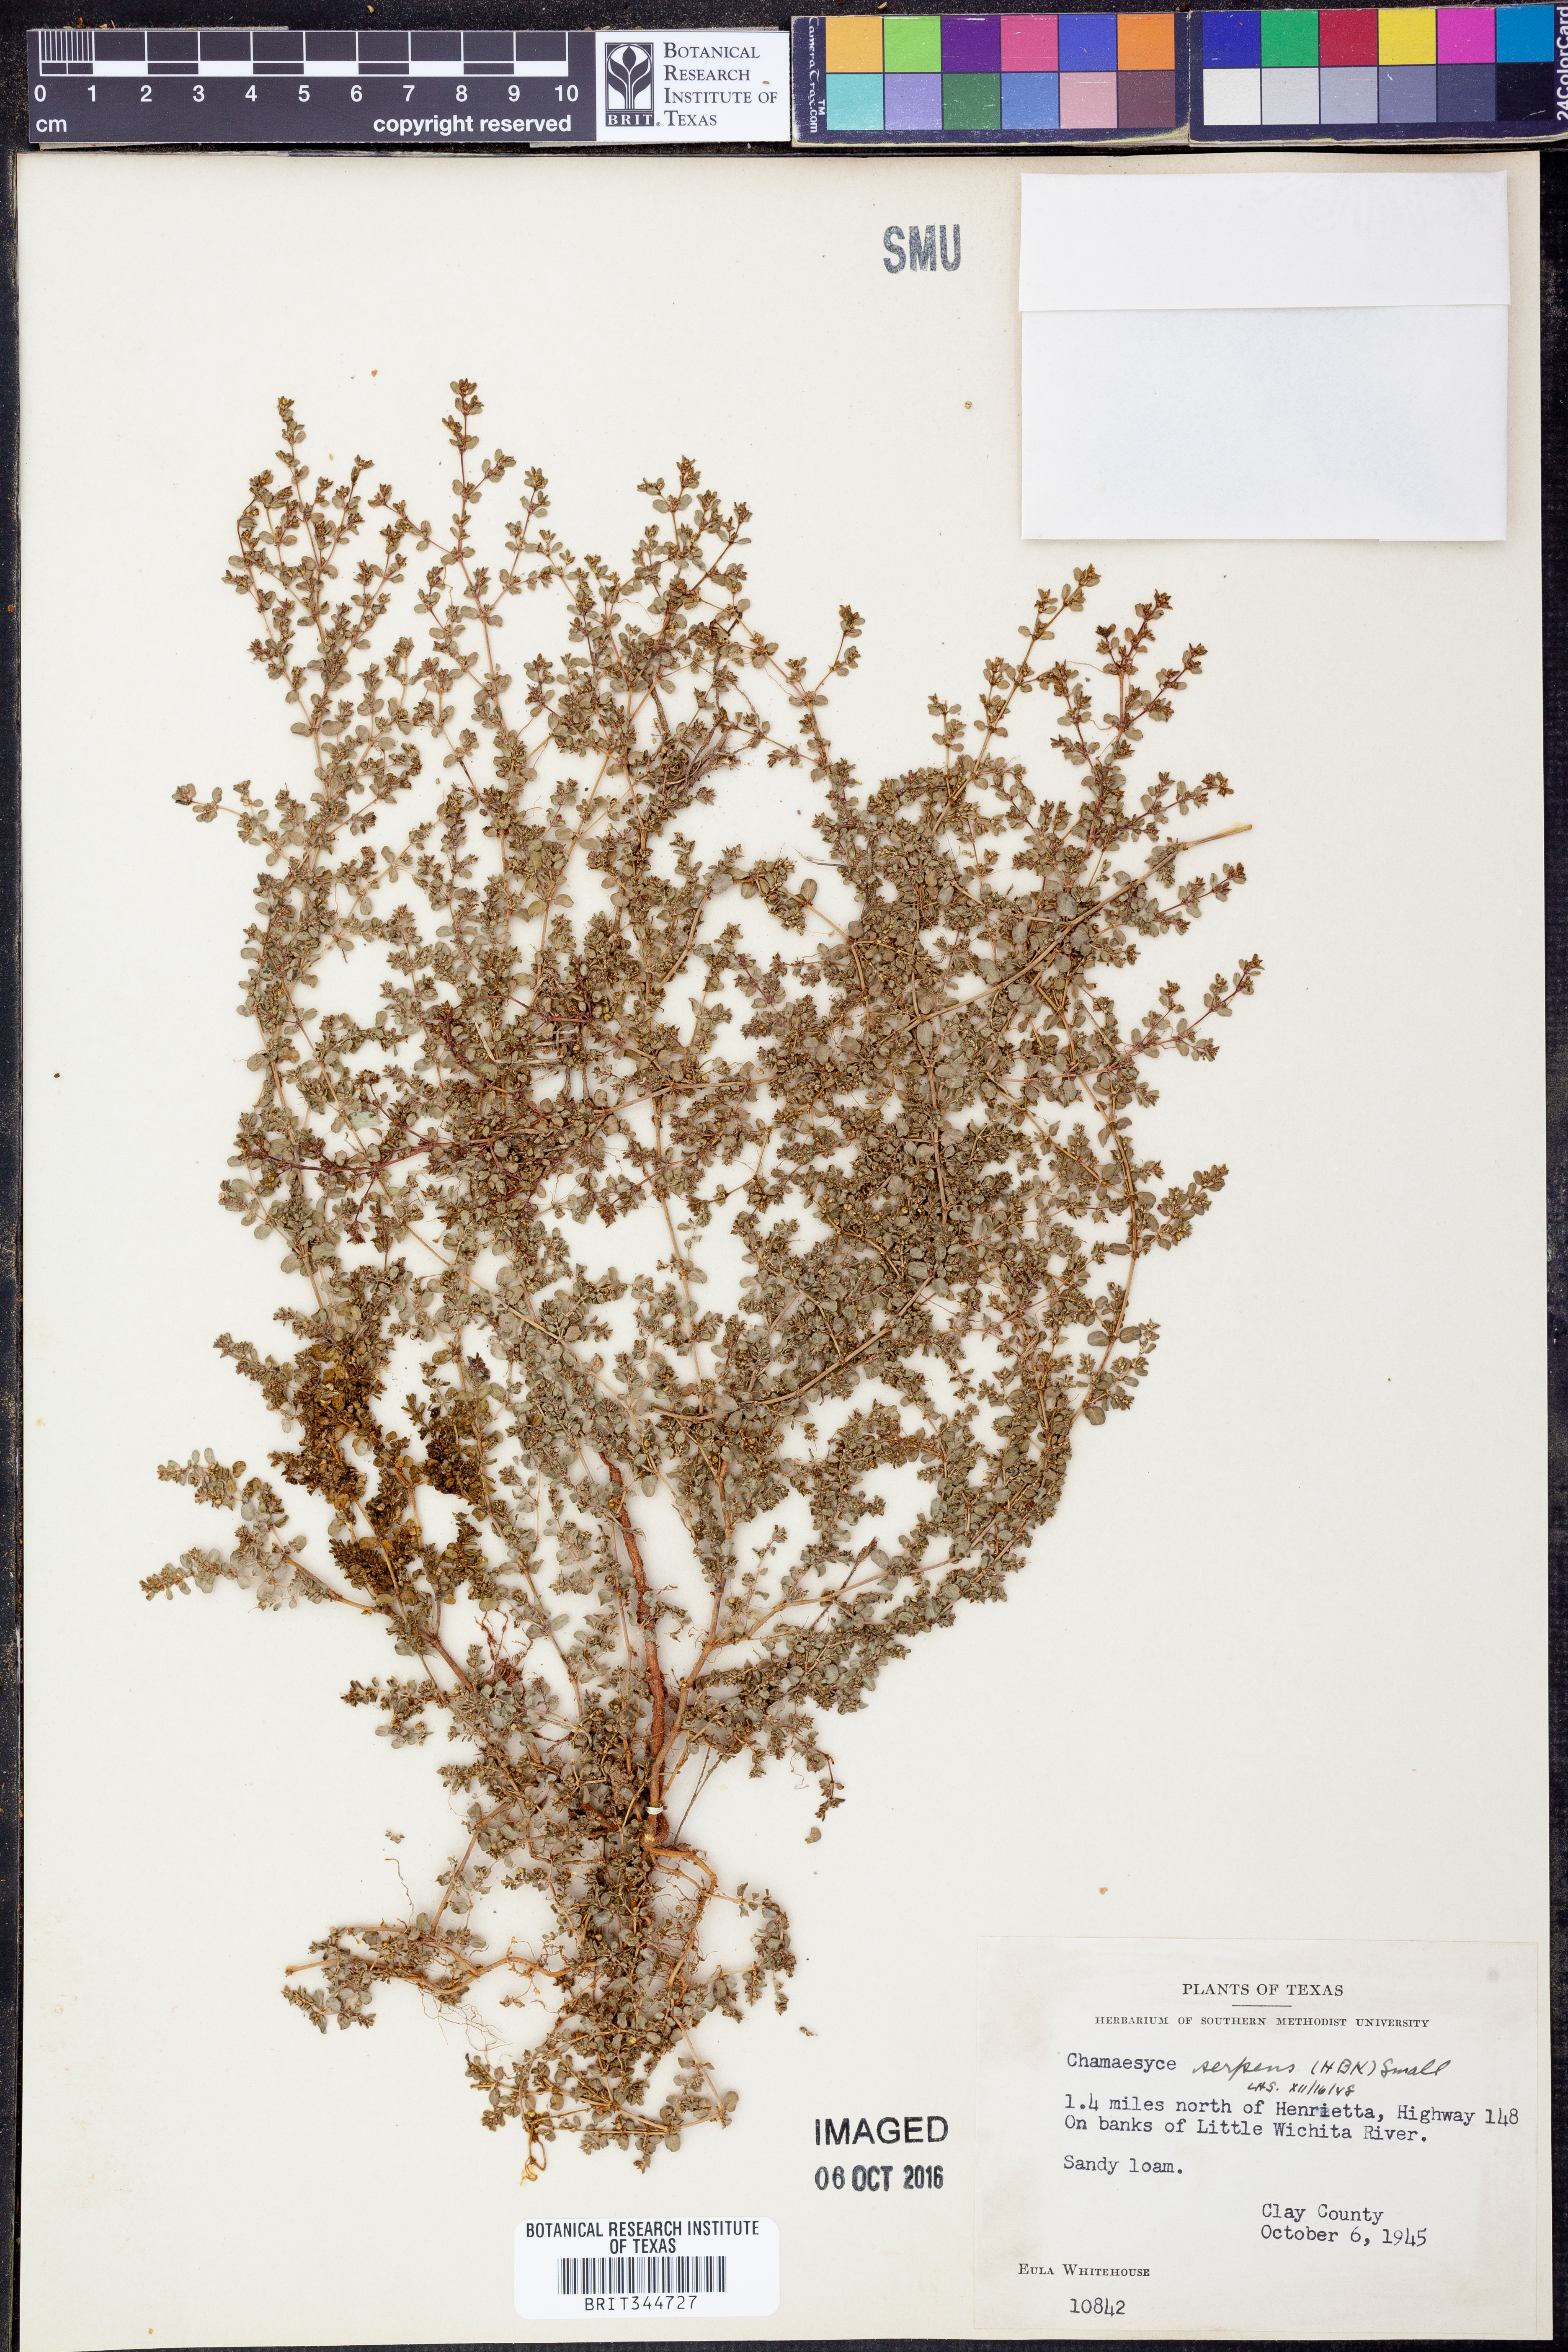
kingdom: Plantae
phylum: Tracheophyta
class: Magnoliopsida
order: Malpighiales
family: Euphorbiaceae
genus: Euphorbia
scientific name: Euphorbia serpens
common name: Matted sandmat
